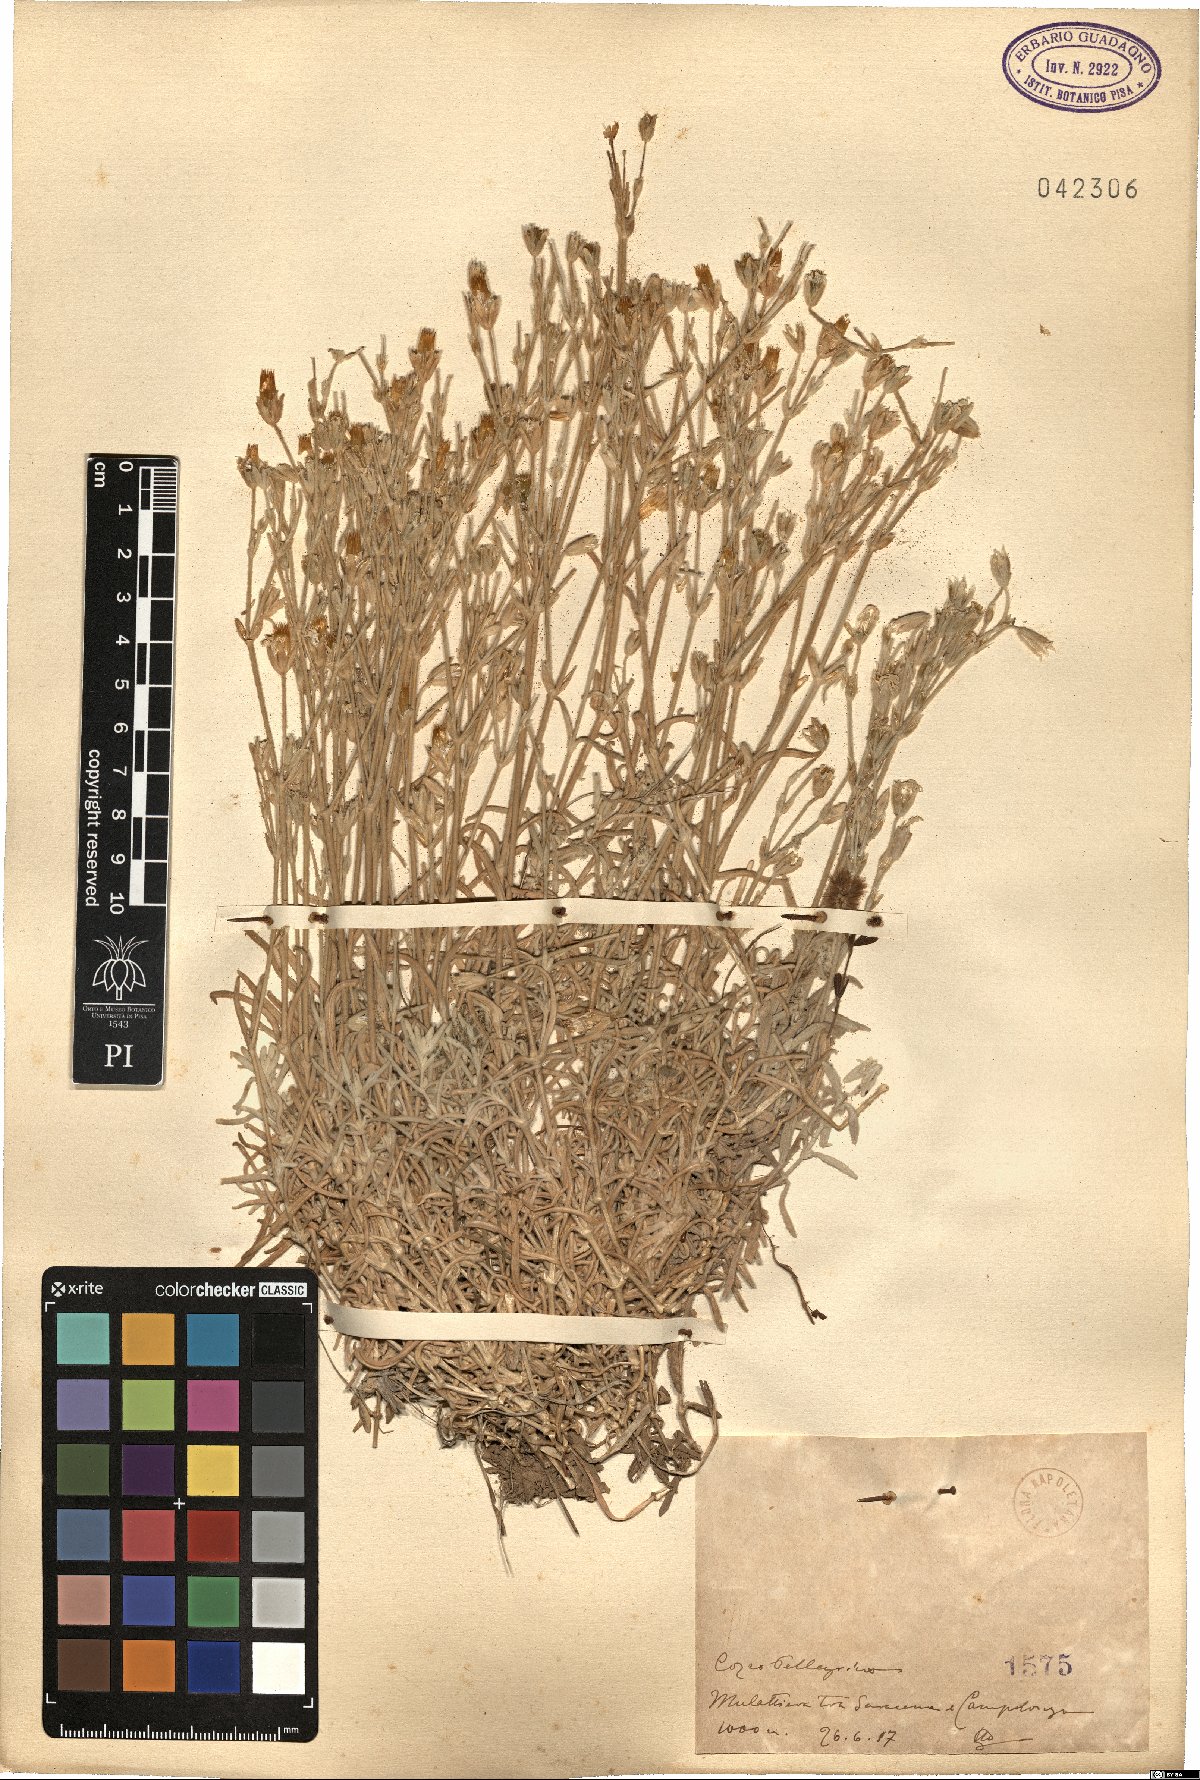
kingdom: Plantae
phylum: Tracheophyta
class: Magnoliopsida
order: Caryophyllales
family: Caryophyllaceae
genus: Cerastium
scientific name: Cerastium
